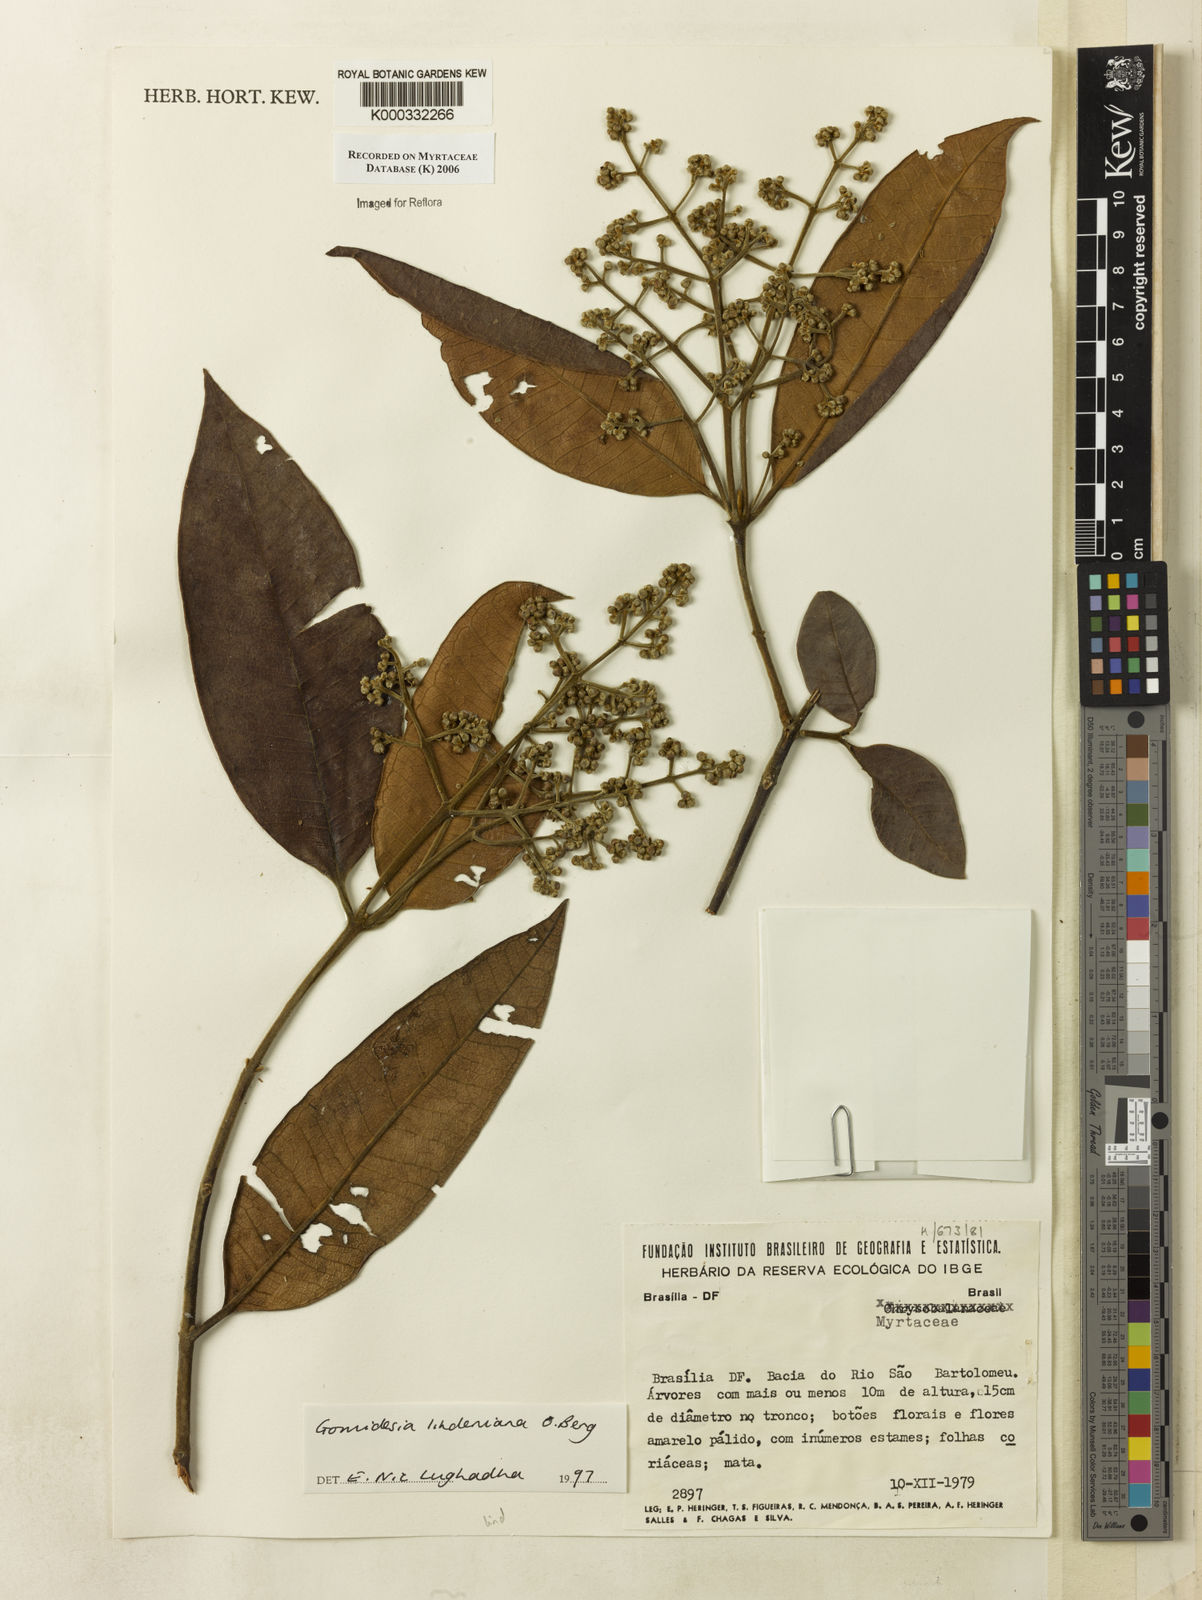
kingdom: Plantae
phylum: Tracheophyta
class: Magnoliopsida
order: Myrtales
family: Myrtaceae
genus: Myrcia
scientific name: Myrcia fenzliana
